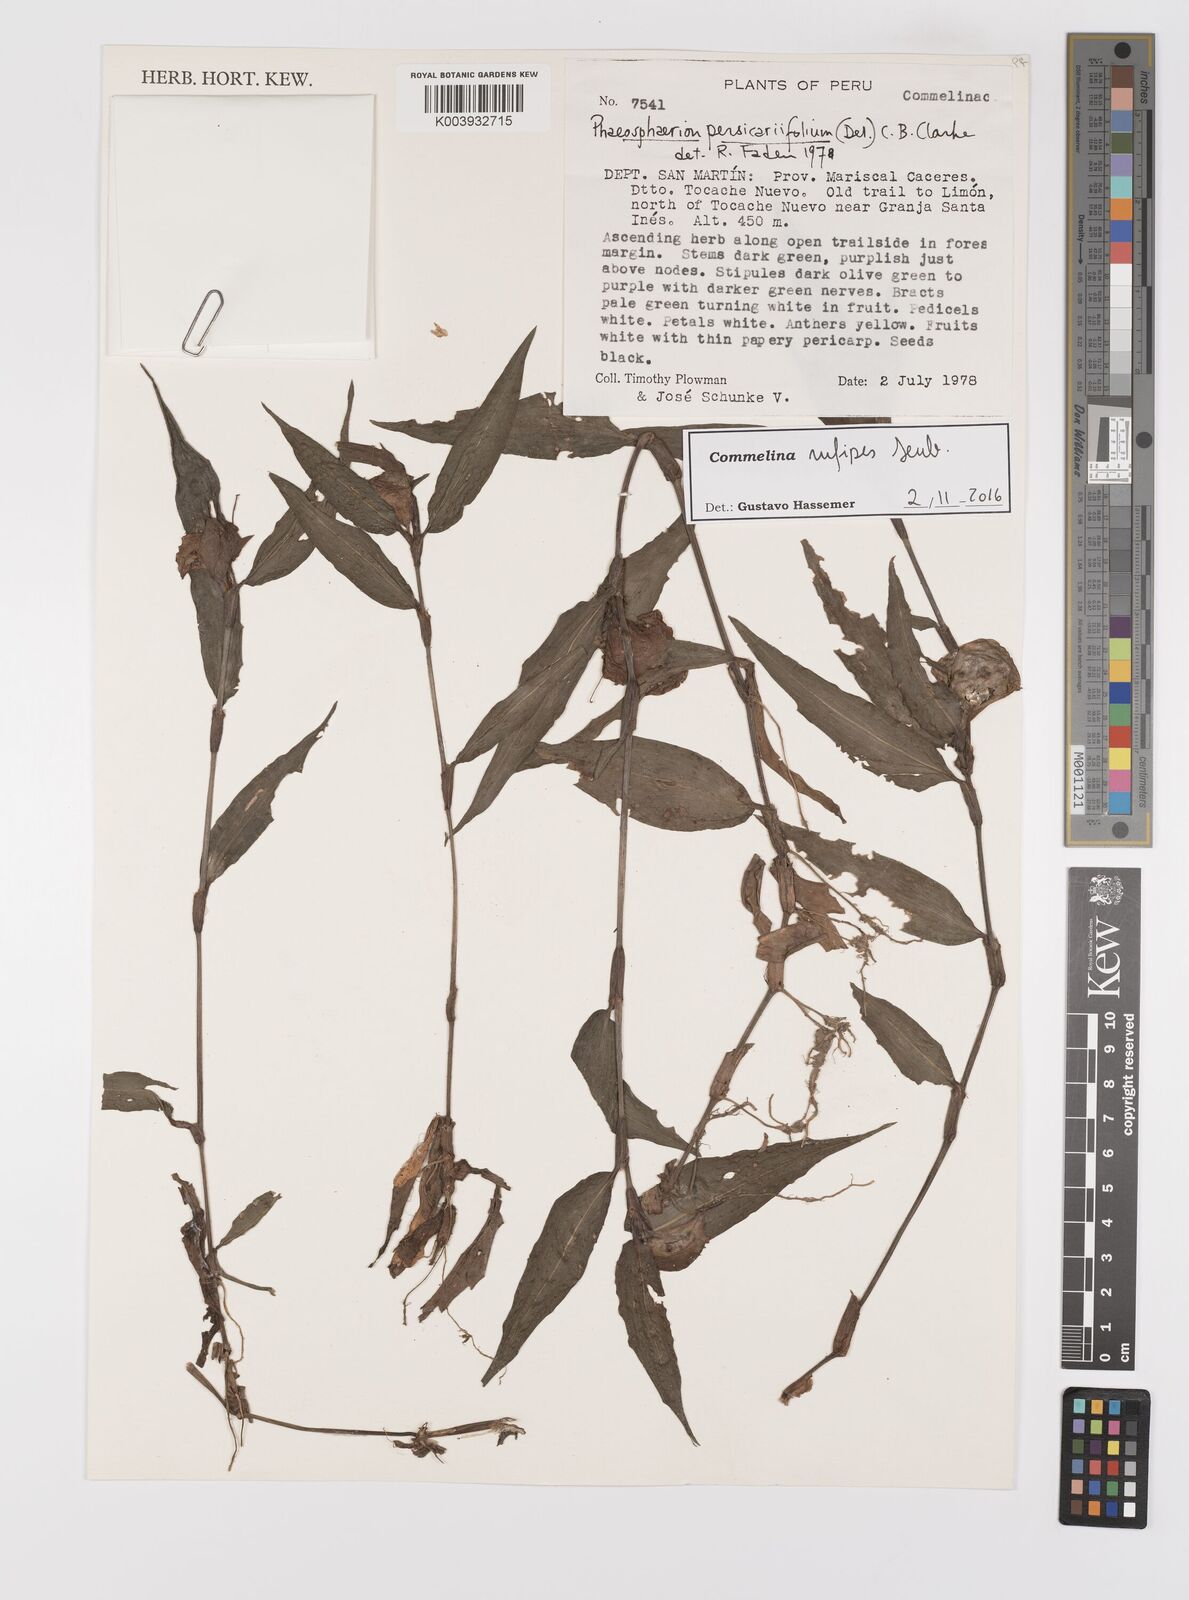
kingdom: Plantae
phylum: Tracheophyta
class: Liliopsida
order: Commelinales
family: Commelinaceae
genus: Commelina
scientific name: Commelina rufipes
